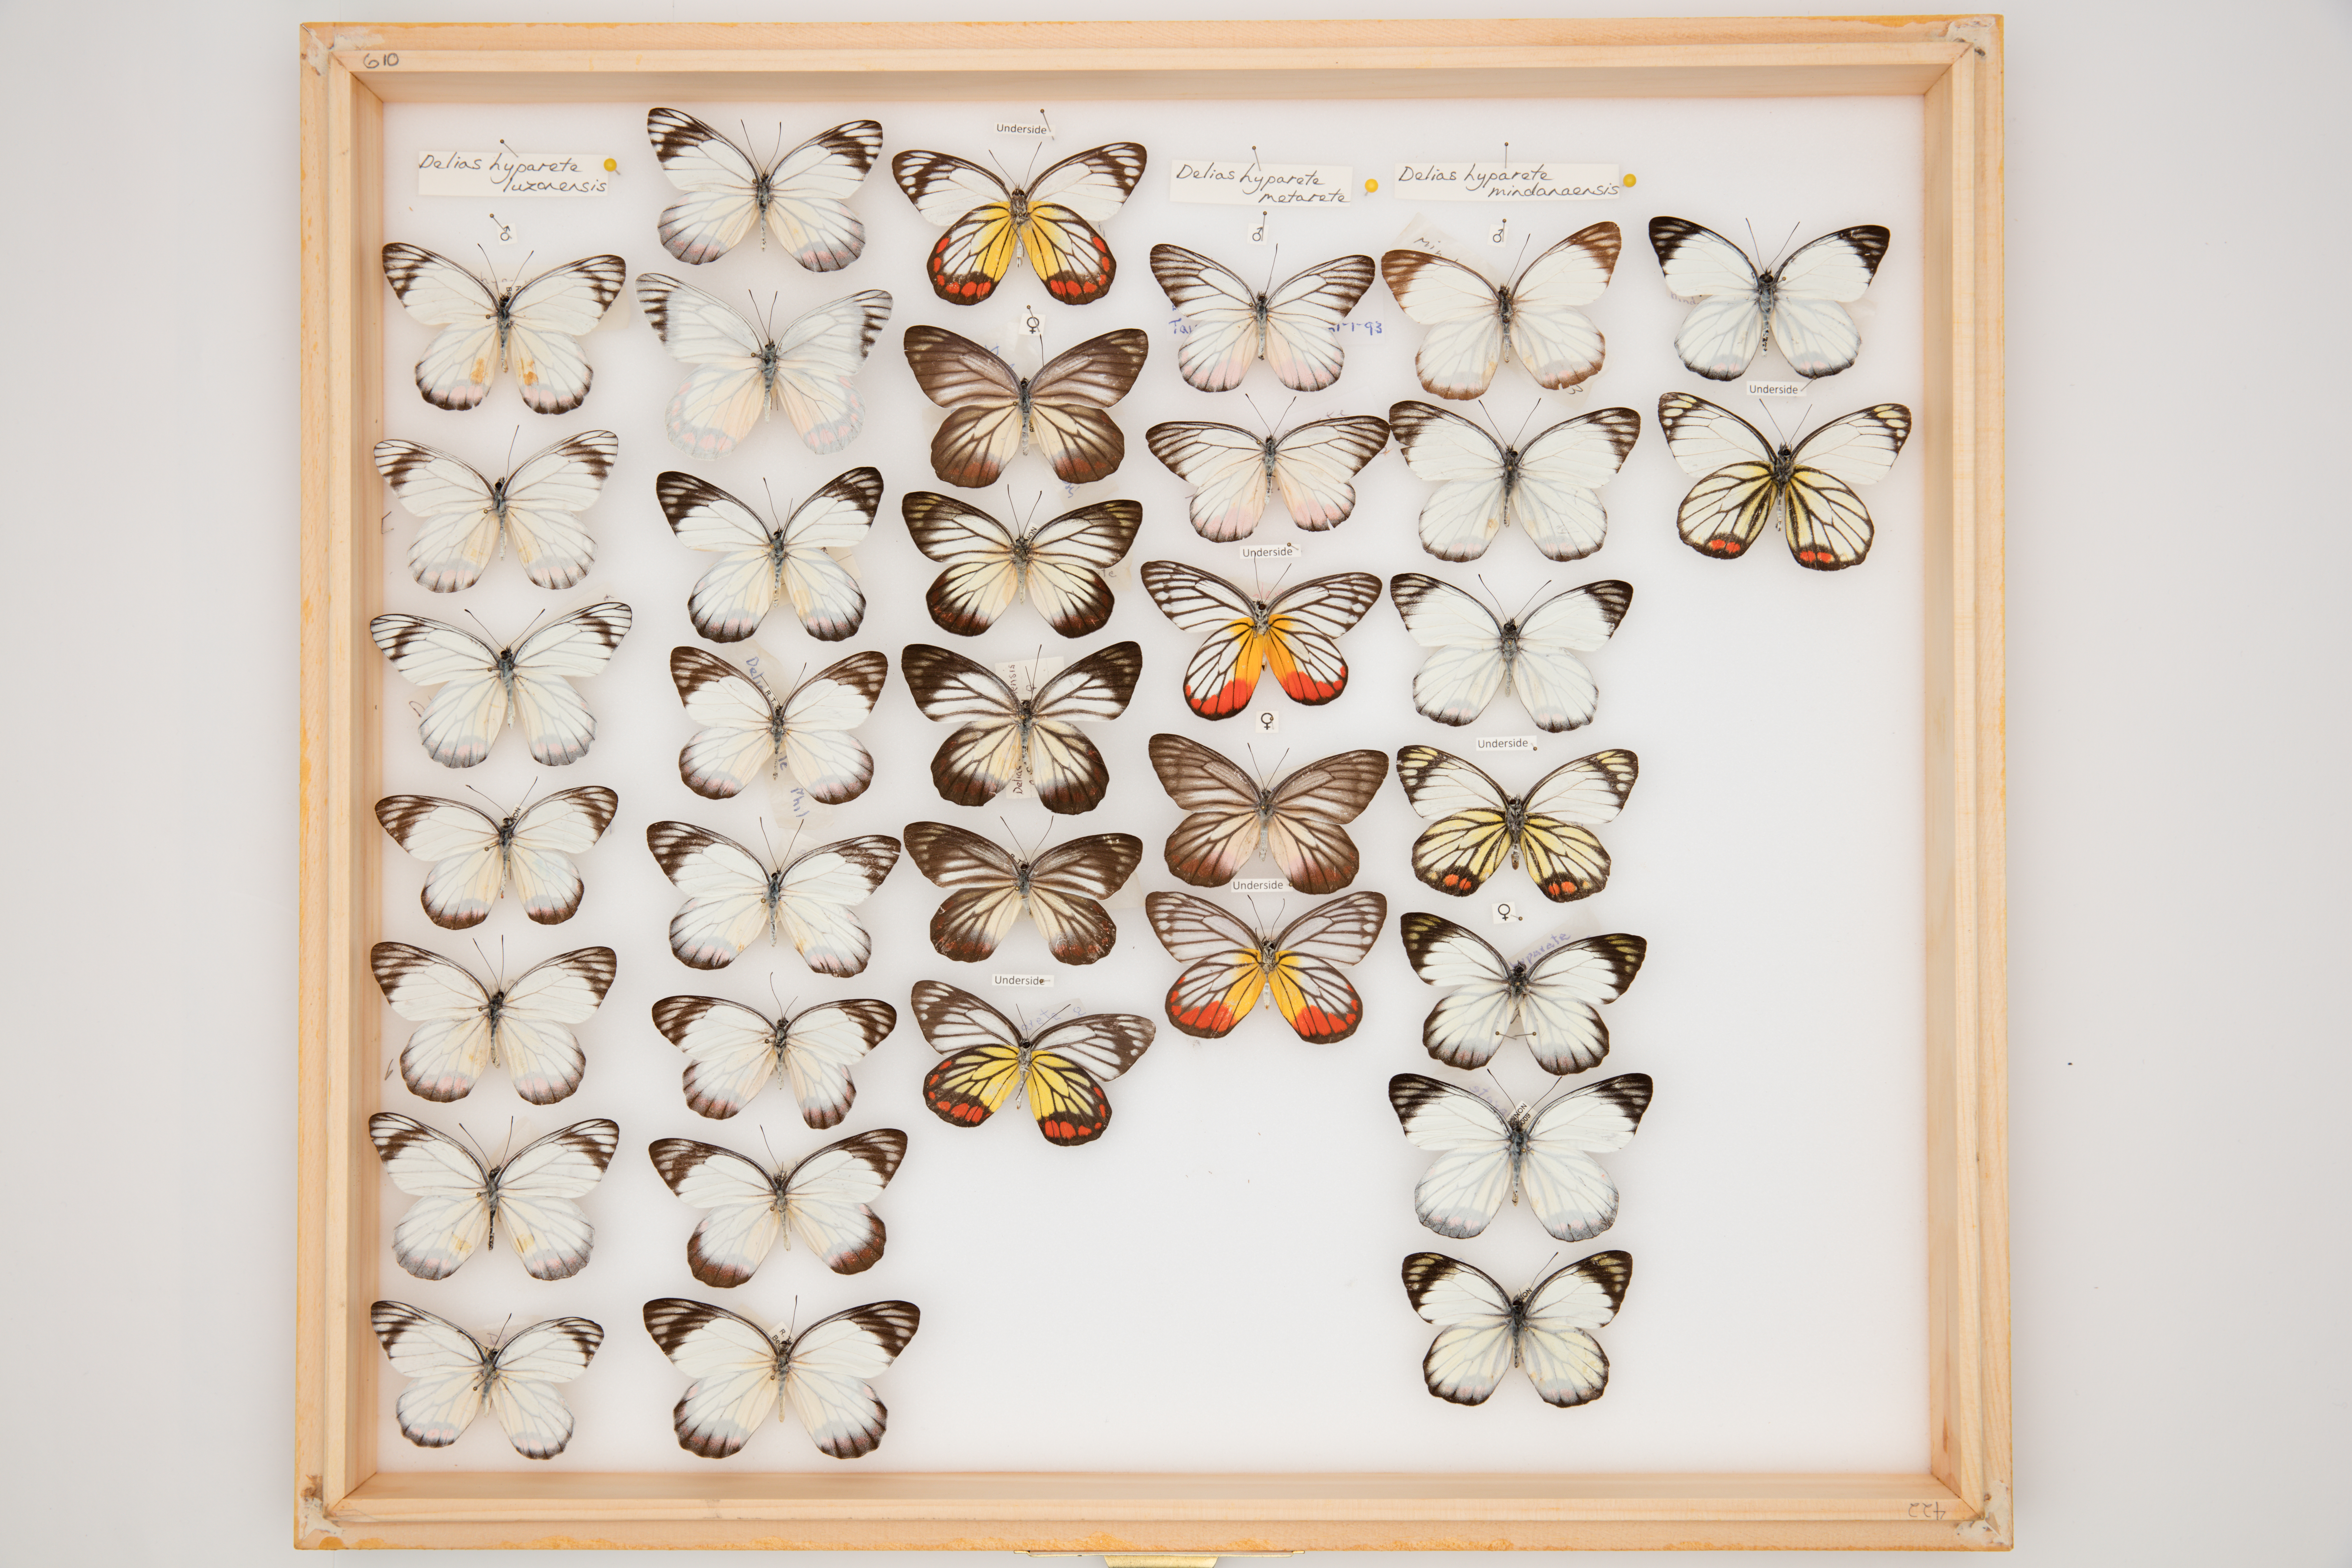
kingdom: Animalia
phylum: Arthropoda
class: Insecta
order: Lepidoptera
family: Pieridae
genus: Delias
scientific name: Delias hyparete
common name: Painted jezebel
